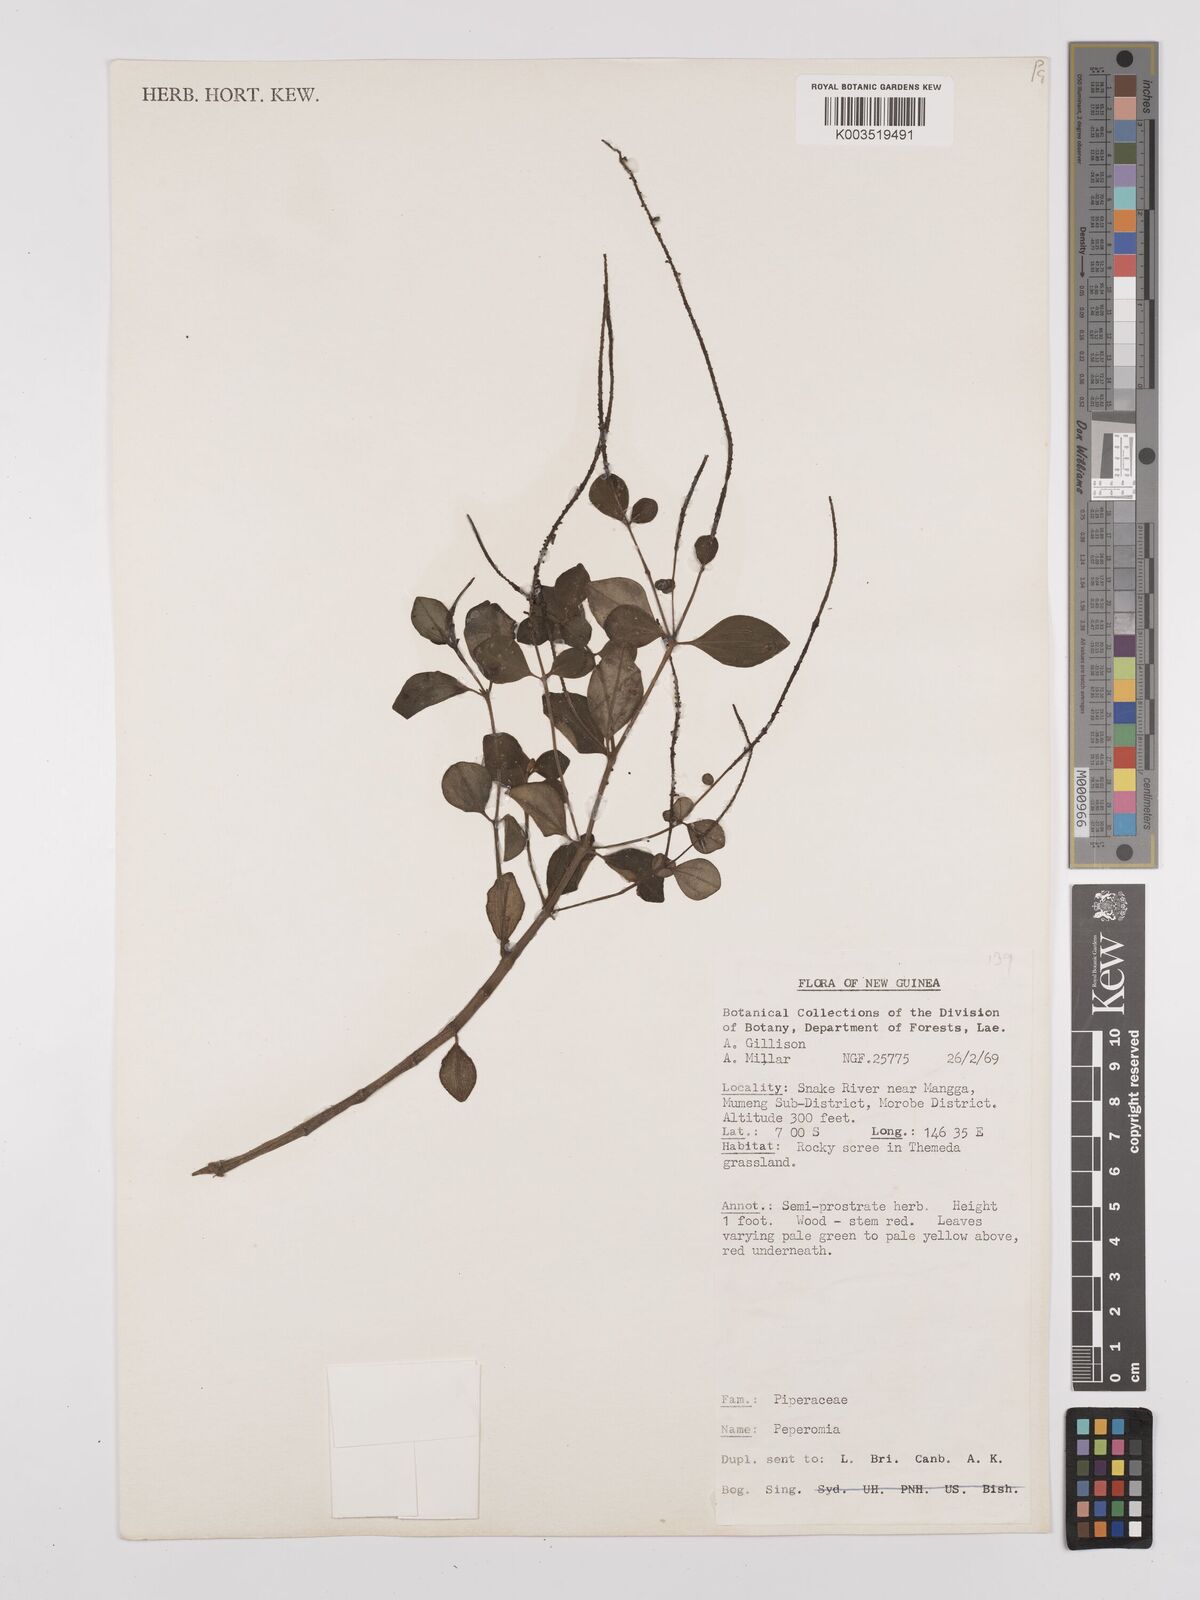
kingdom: Plantae
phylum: Tracheophyta
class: Magnoliopsida
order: Piperales
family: Piperaceae
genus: Peperomia
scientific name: Peperomia
